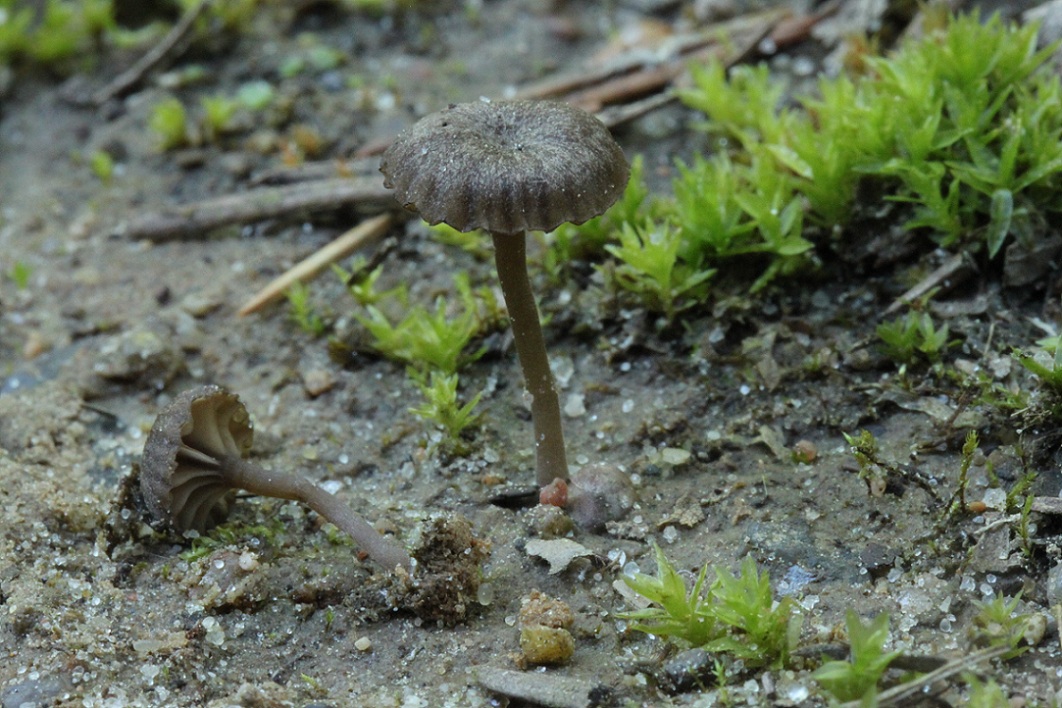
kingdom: Fungi
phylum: Basidiomycota
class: Agaricomycetes
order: Agaricales
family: Hygrophoraceae
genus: Arrhenia
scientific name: Arrhenia velutipes
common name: dunstokket fontænehat
